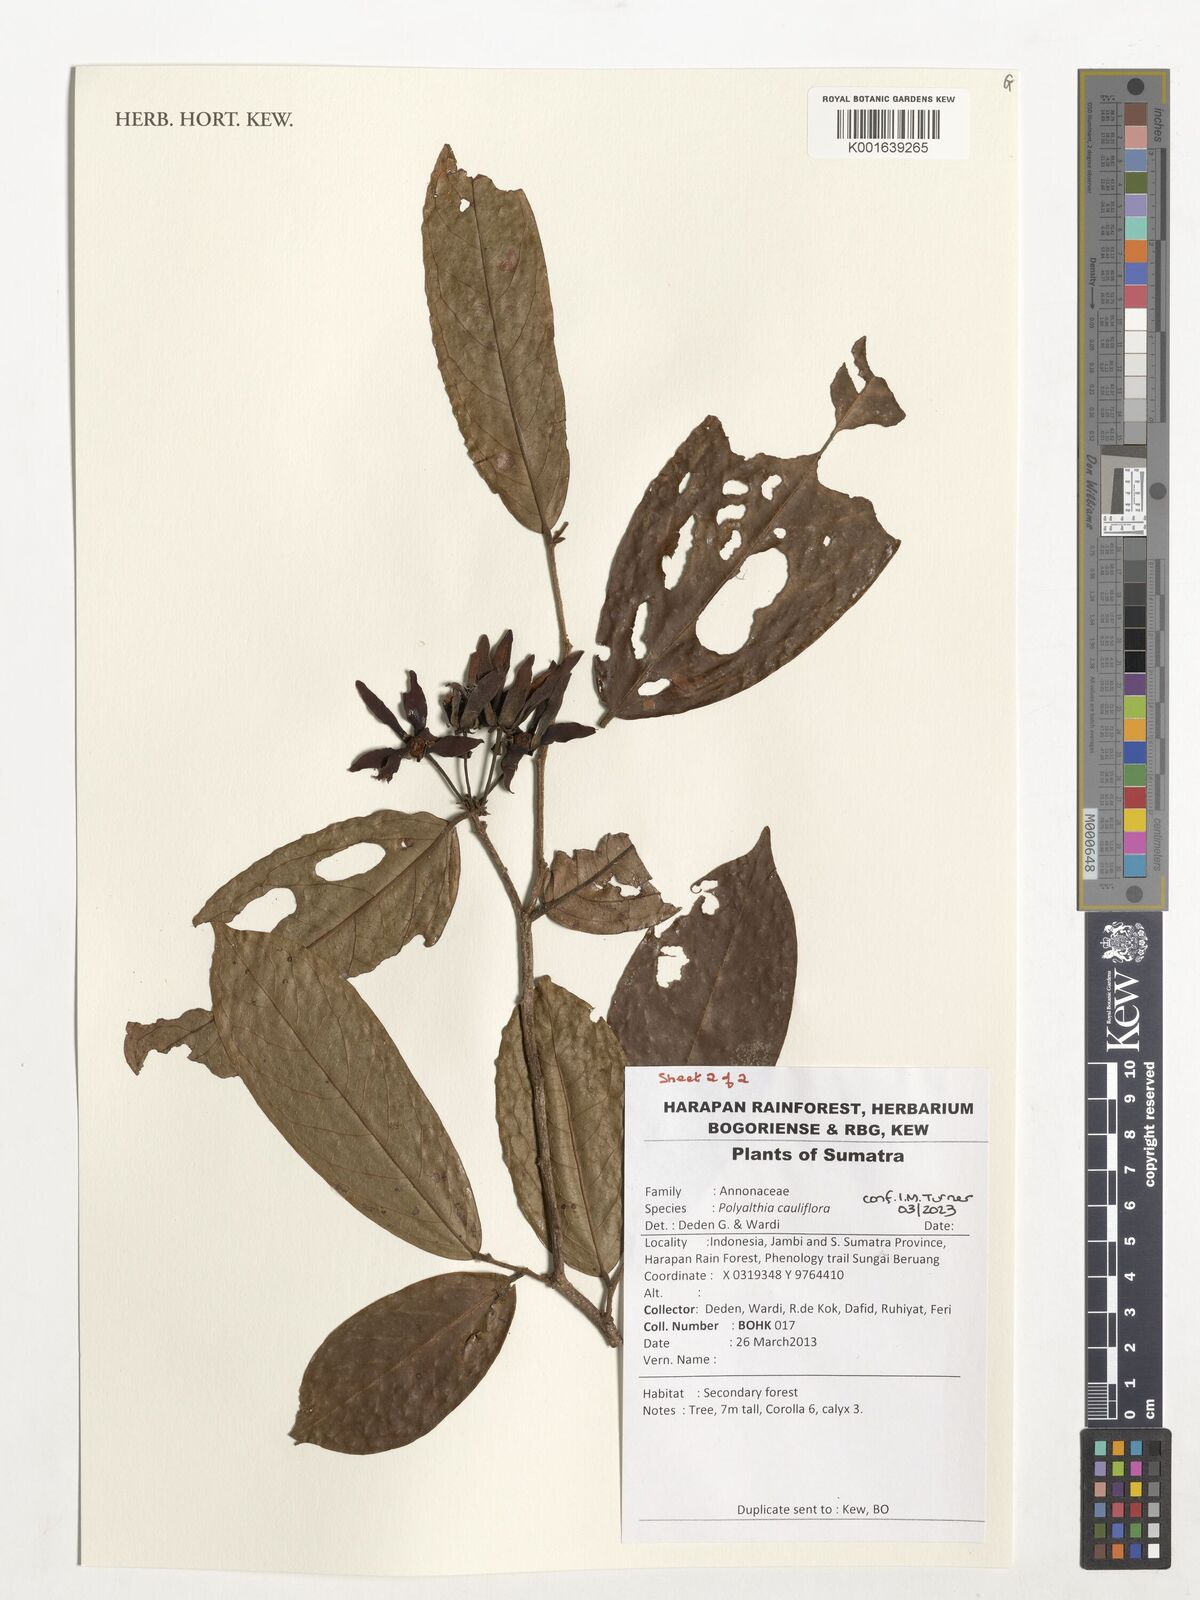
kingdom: Plantae
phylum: Tracheophyta
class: Magnoliopsida
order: Magnoliales
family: Annonaceae
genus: Polyalthia
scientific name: Polyalthia cauliflora
